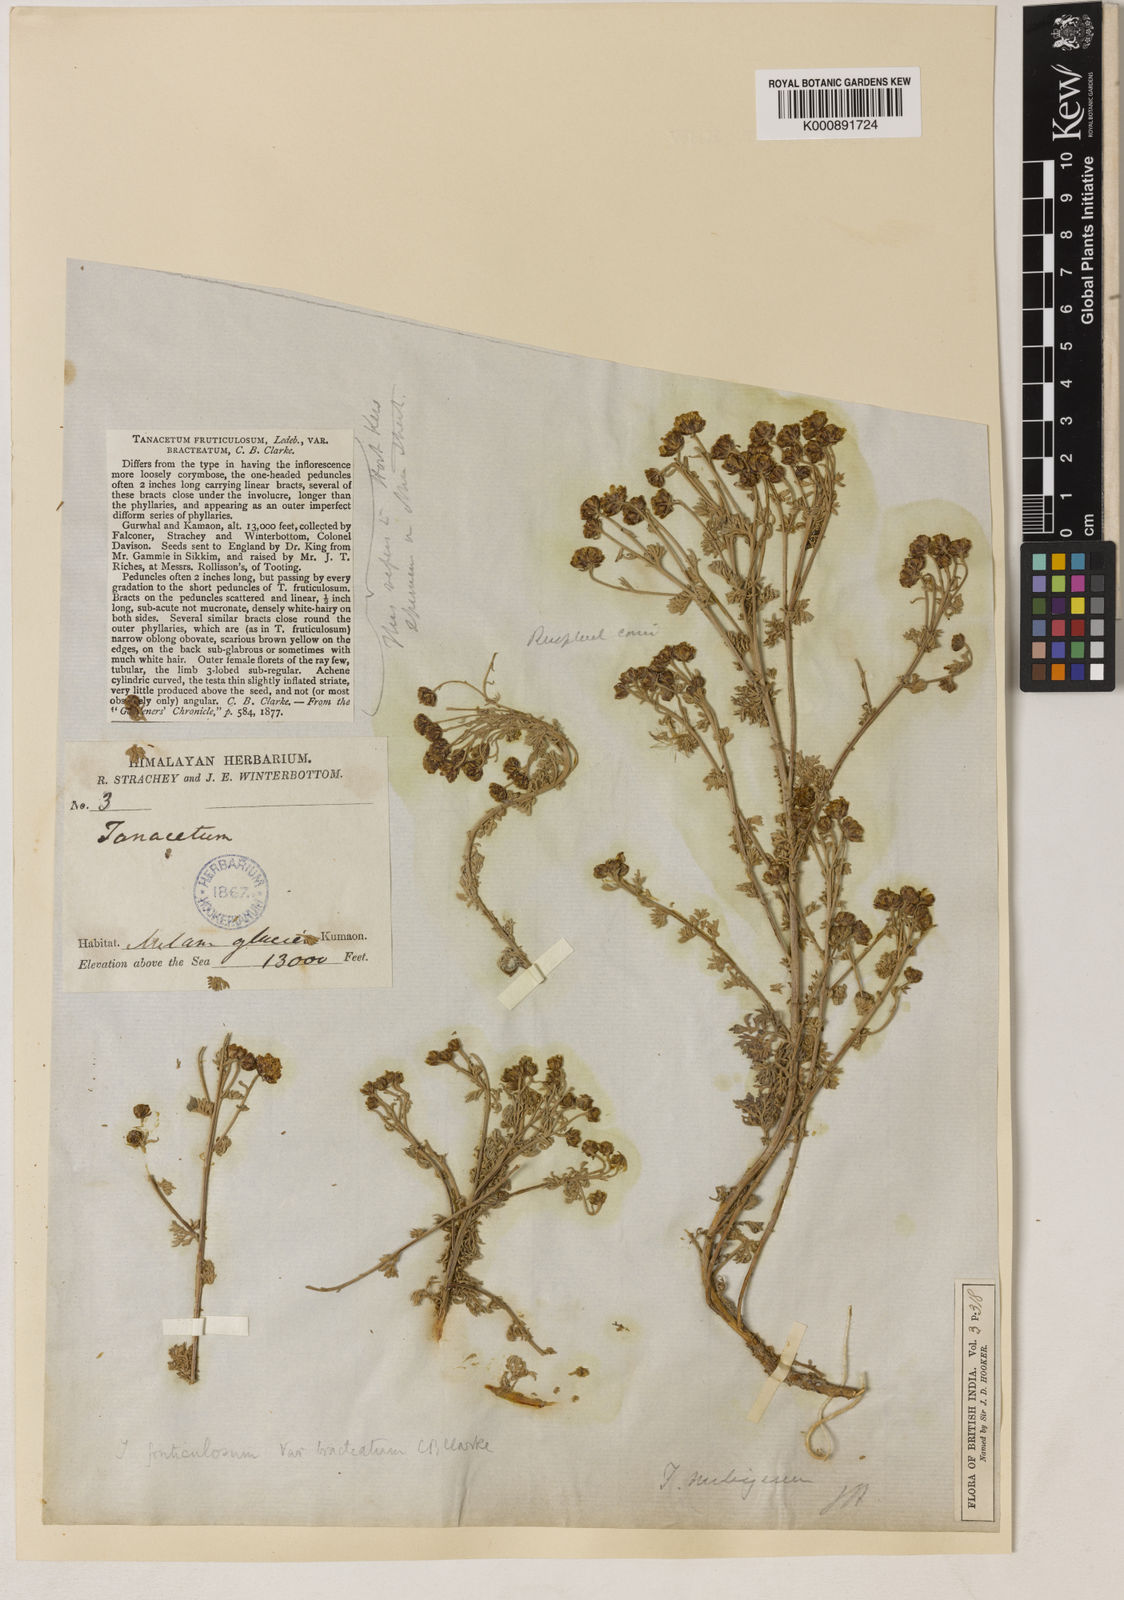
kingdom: Plantae
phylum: Tracheophyta
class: Magnoliopsida
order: Asterales
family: Asteraceae
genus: Ajania
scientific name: Ajania nubigena
